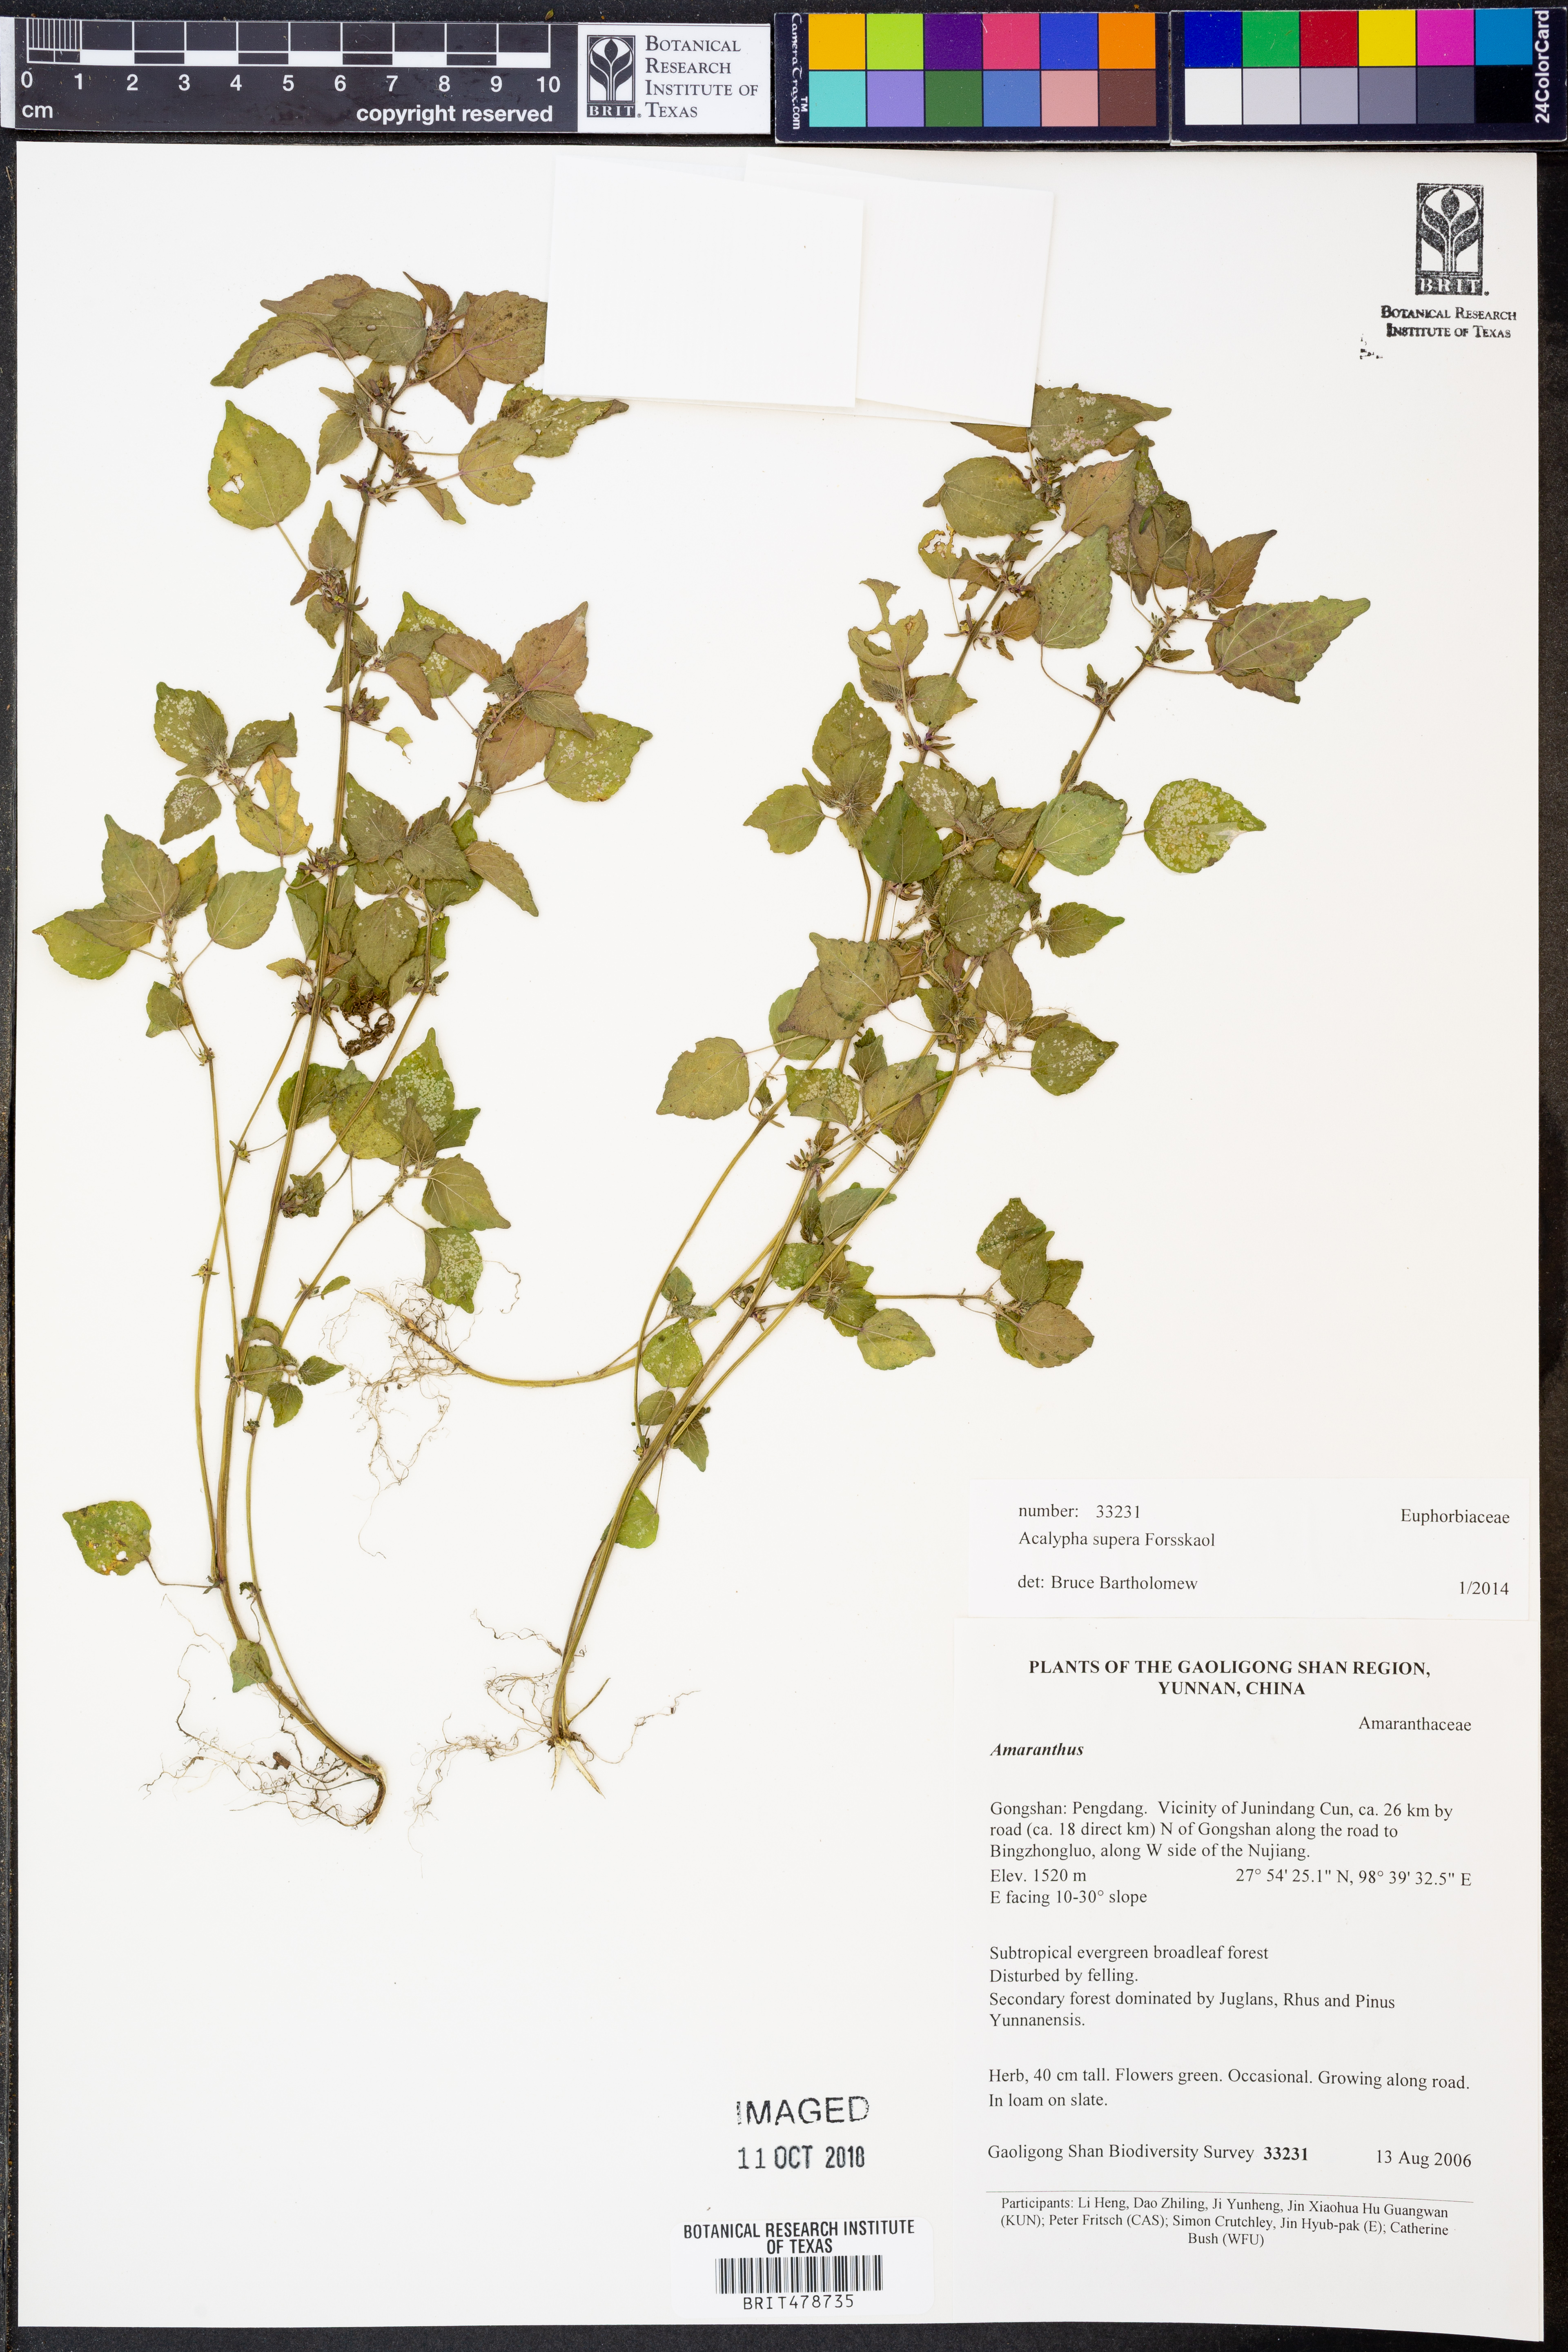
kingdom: Plantae
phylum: Tracheophyta
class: Magnoliopsida
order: Malpighiales
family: Euphorbiaceae
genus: Acalypha
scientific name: Acalypha brachystachya
